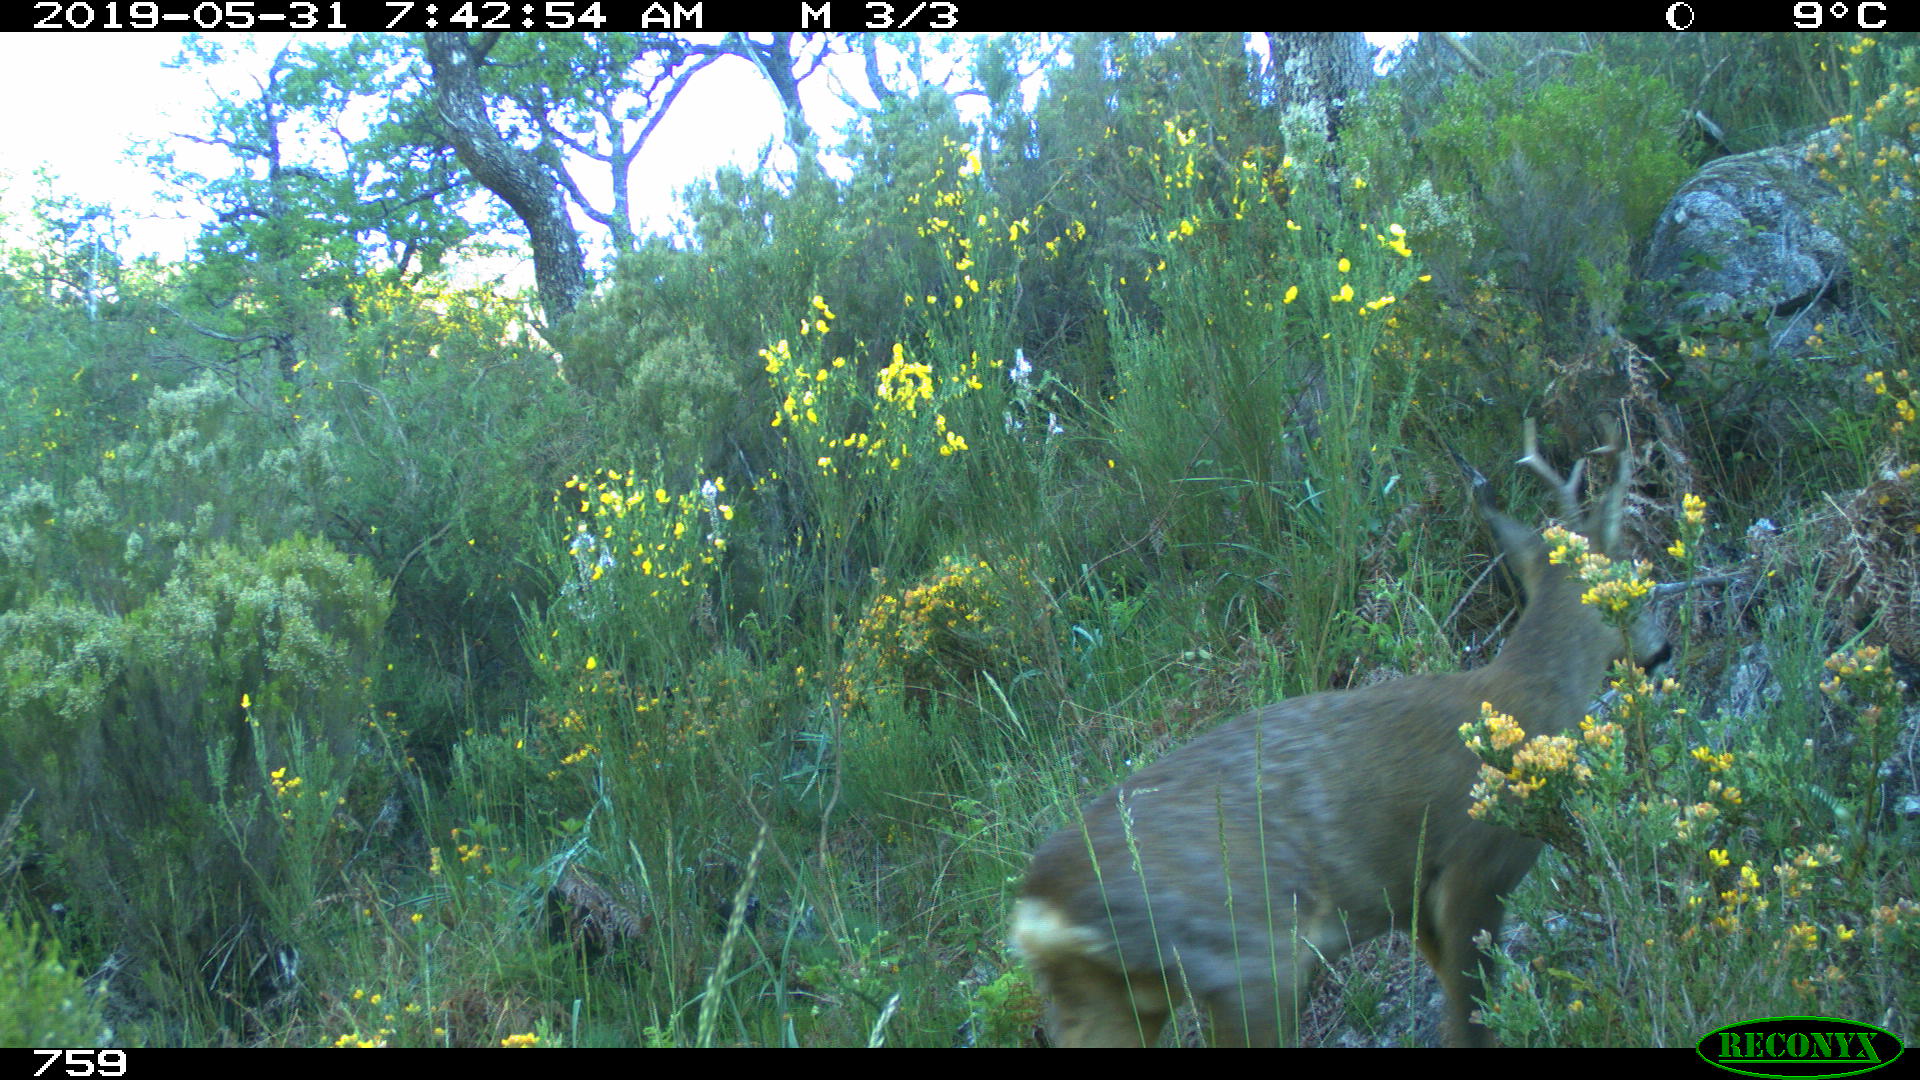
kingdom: Animalia
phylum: Chordata
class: Mammalia
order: Artiodactyla
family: Cervidae
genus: Capreolus
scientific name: Capreolus capreolus
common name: Western roe deer
